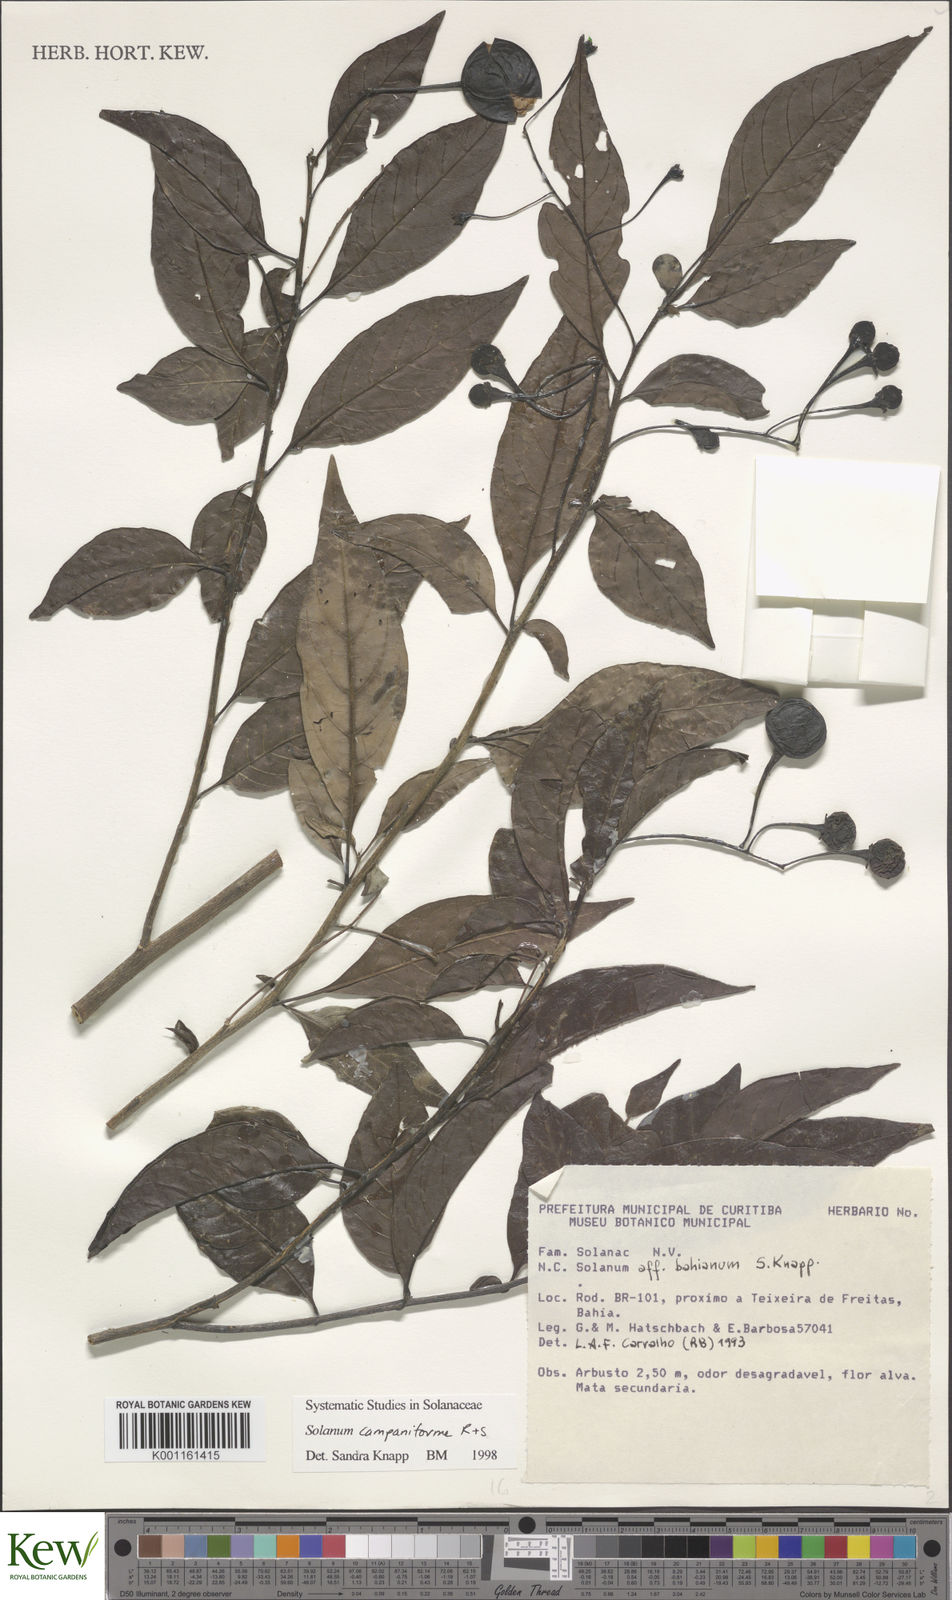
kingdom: Plantae
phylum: Tracheophyta
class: Magnoliopsida
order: Solanales
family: Solanaceae
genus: Solanum
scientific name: Solanum campaniforme
